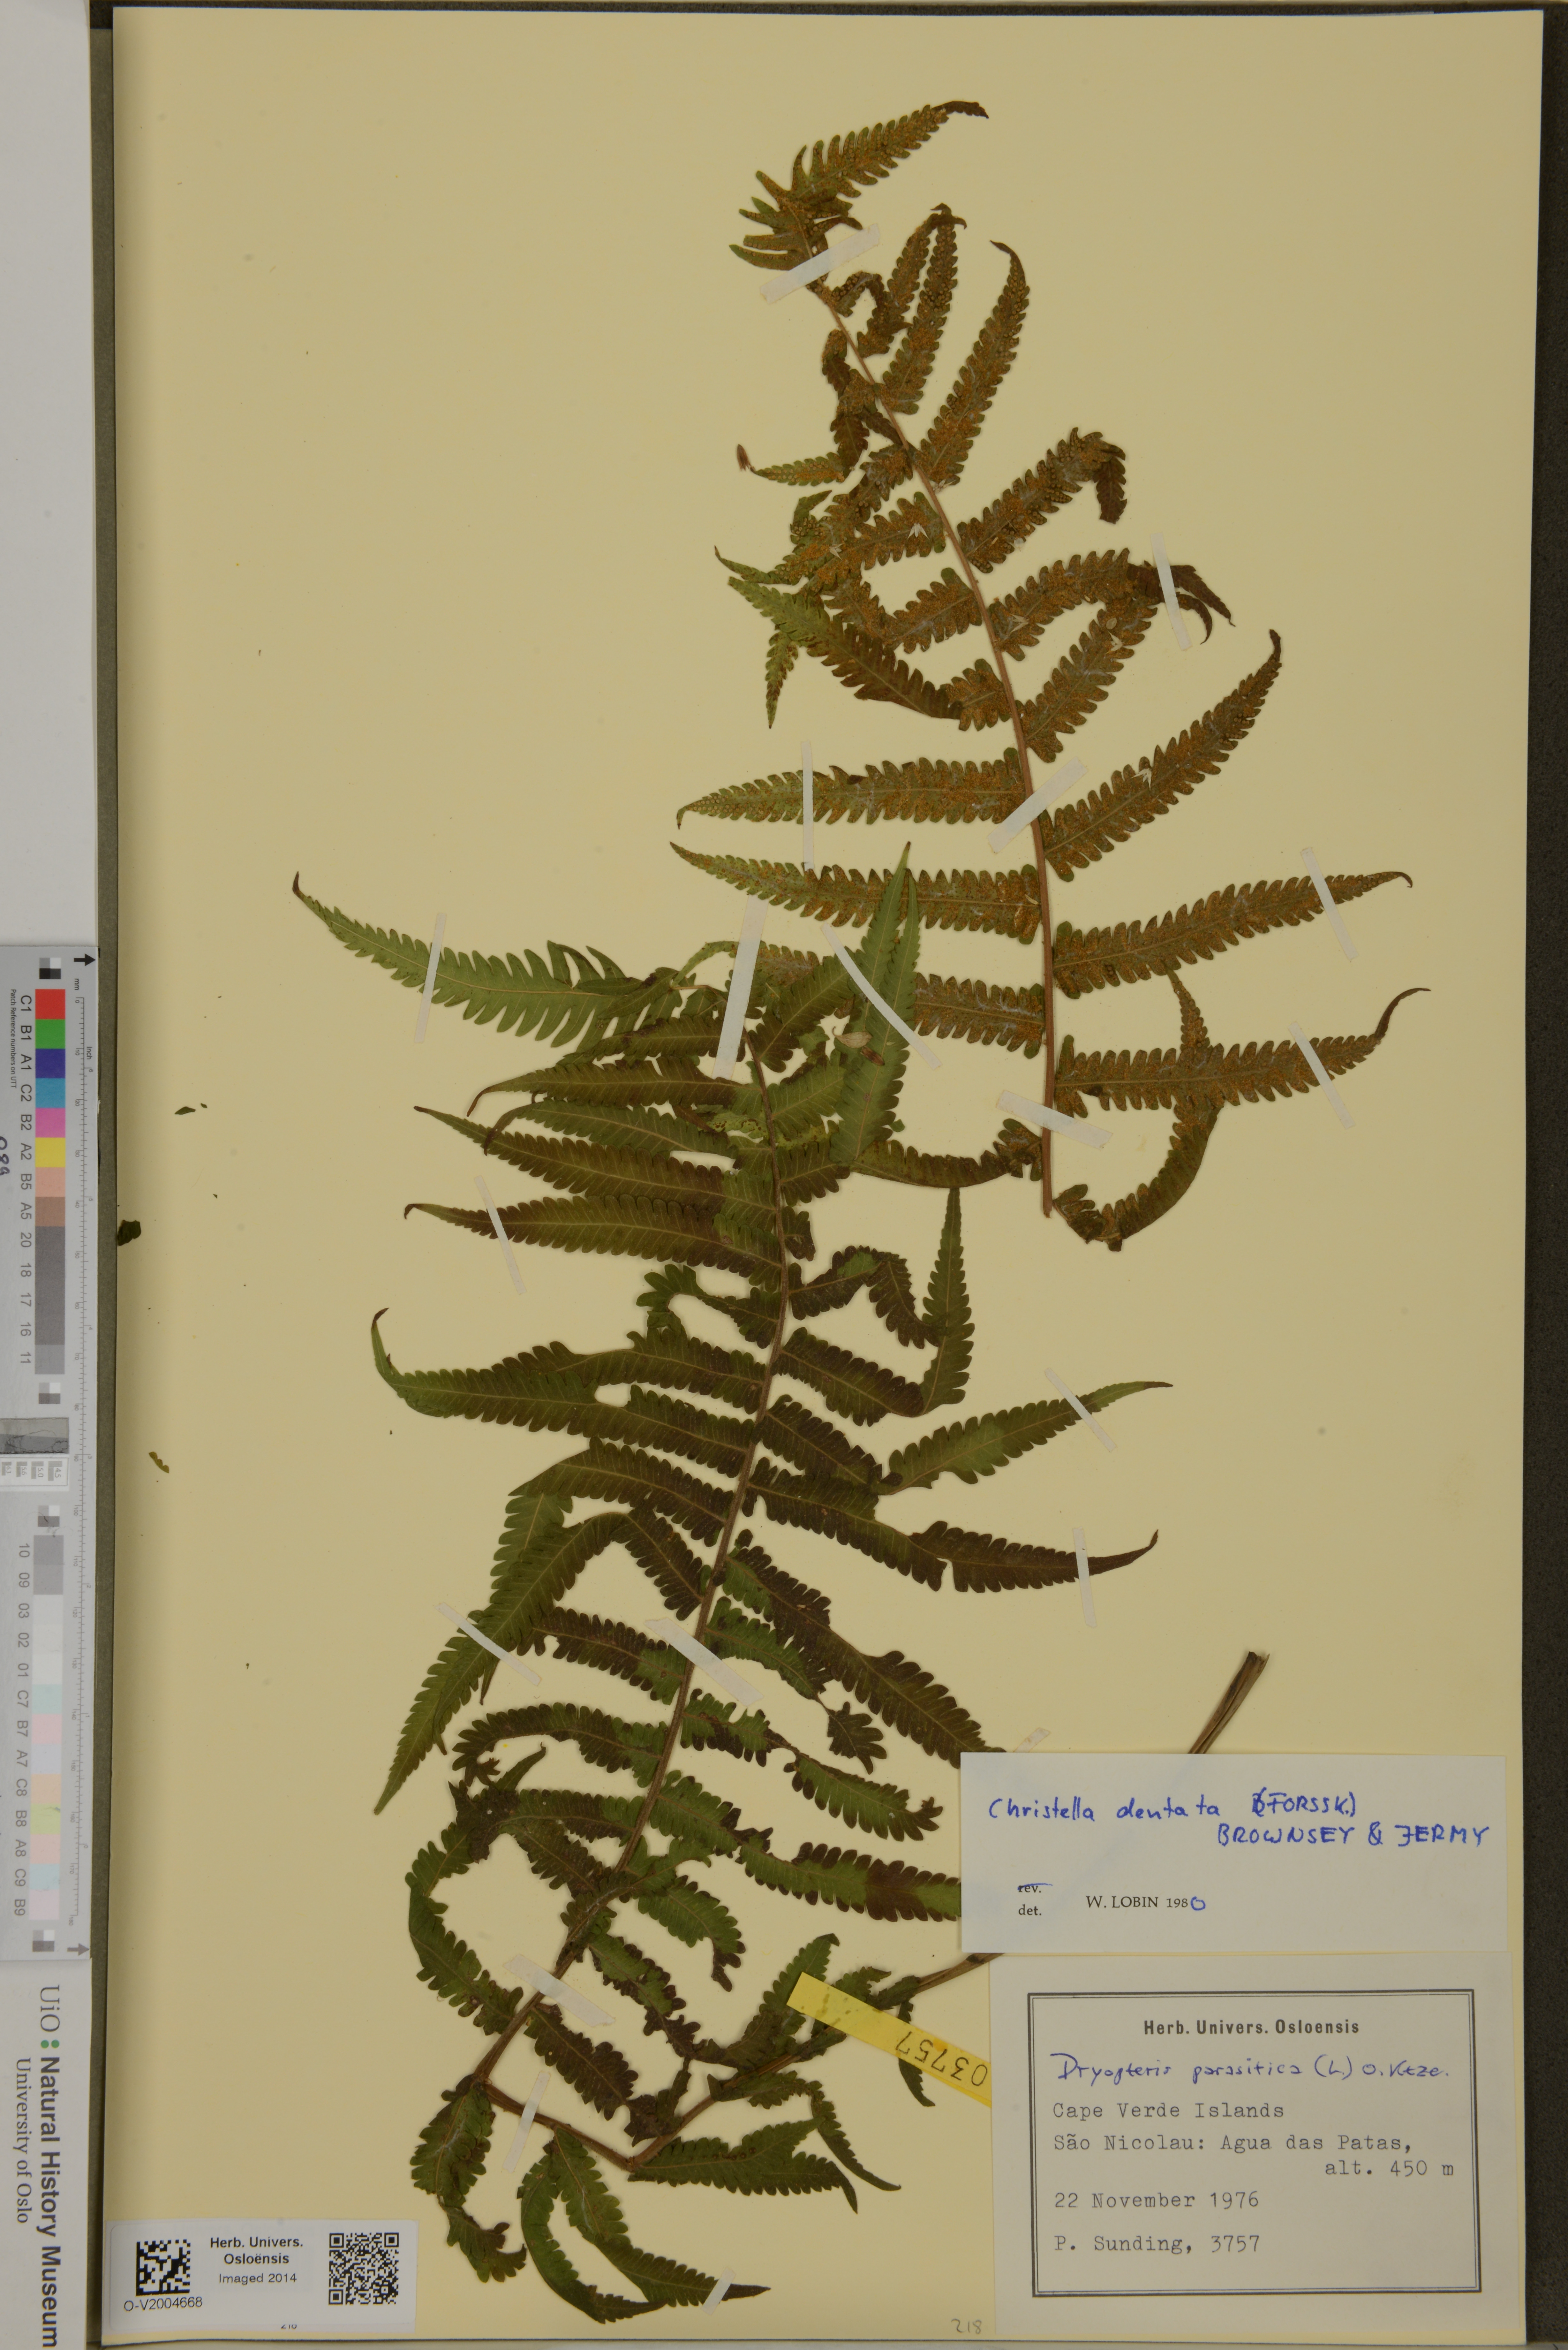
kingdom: Plantae
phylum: Tracheophyta
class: Polypodiopsida
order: Polypodiales
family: Thelypteridaceae
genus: Christella
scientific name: Christella dentata
